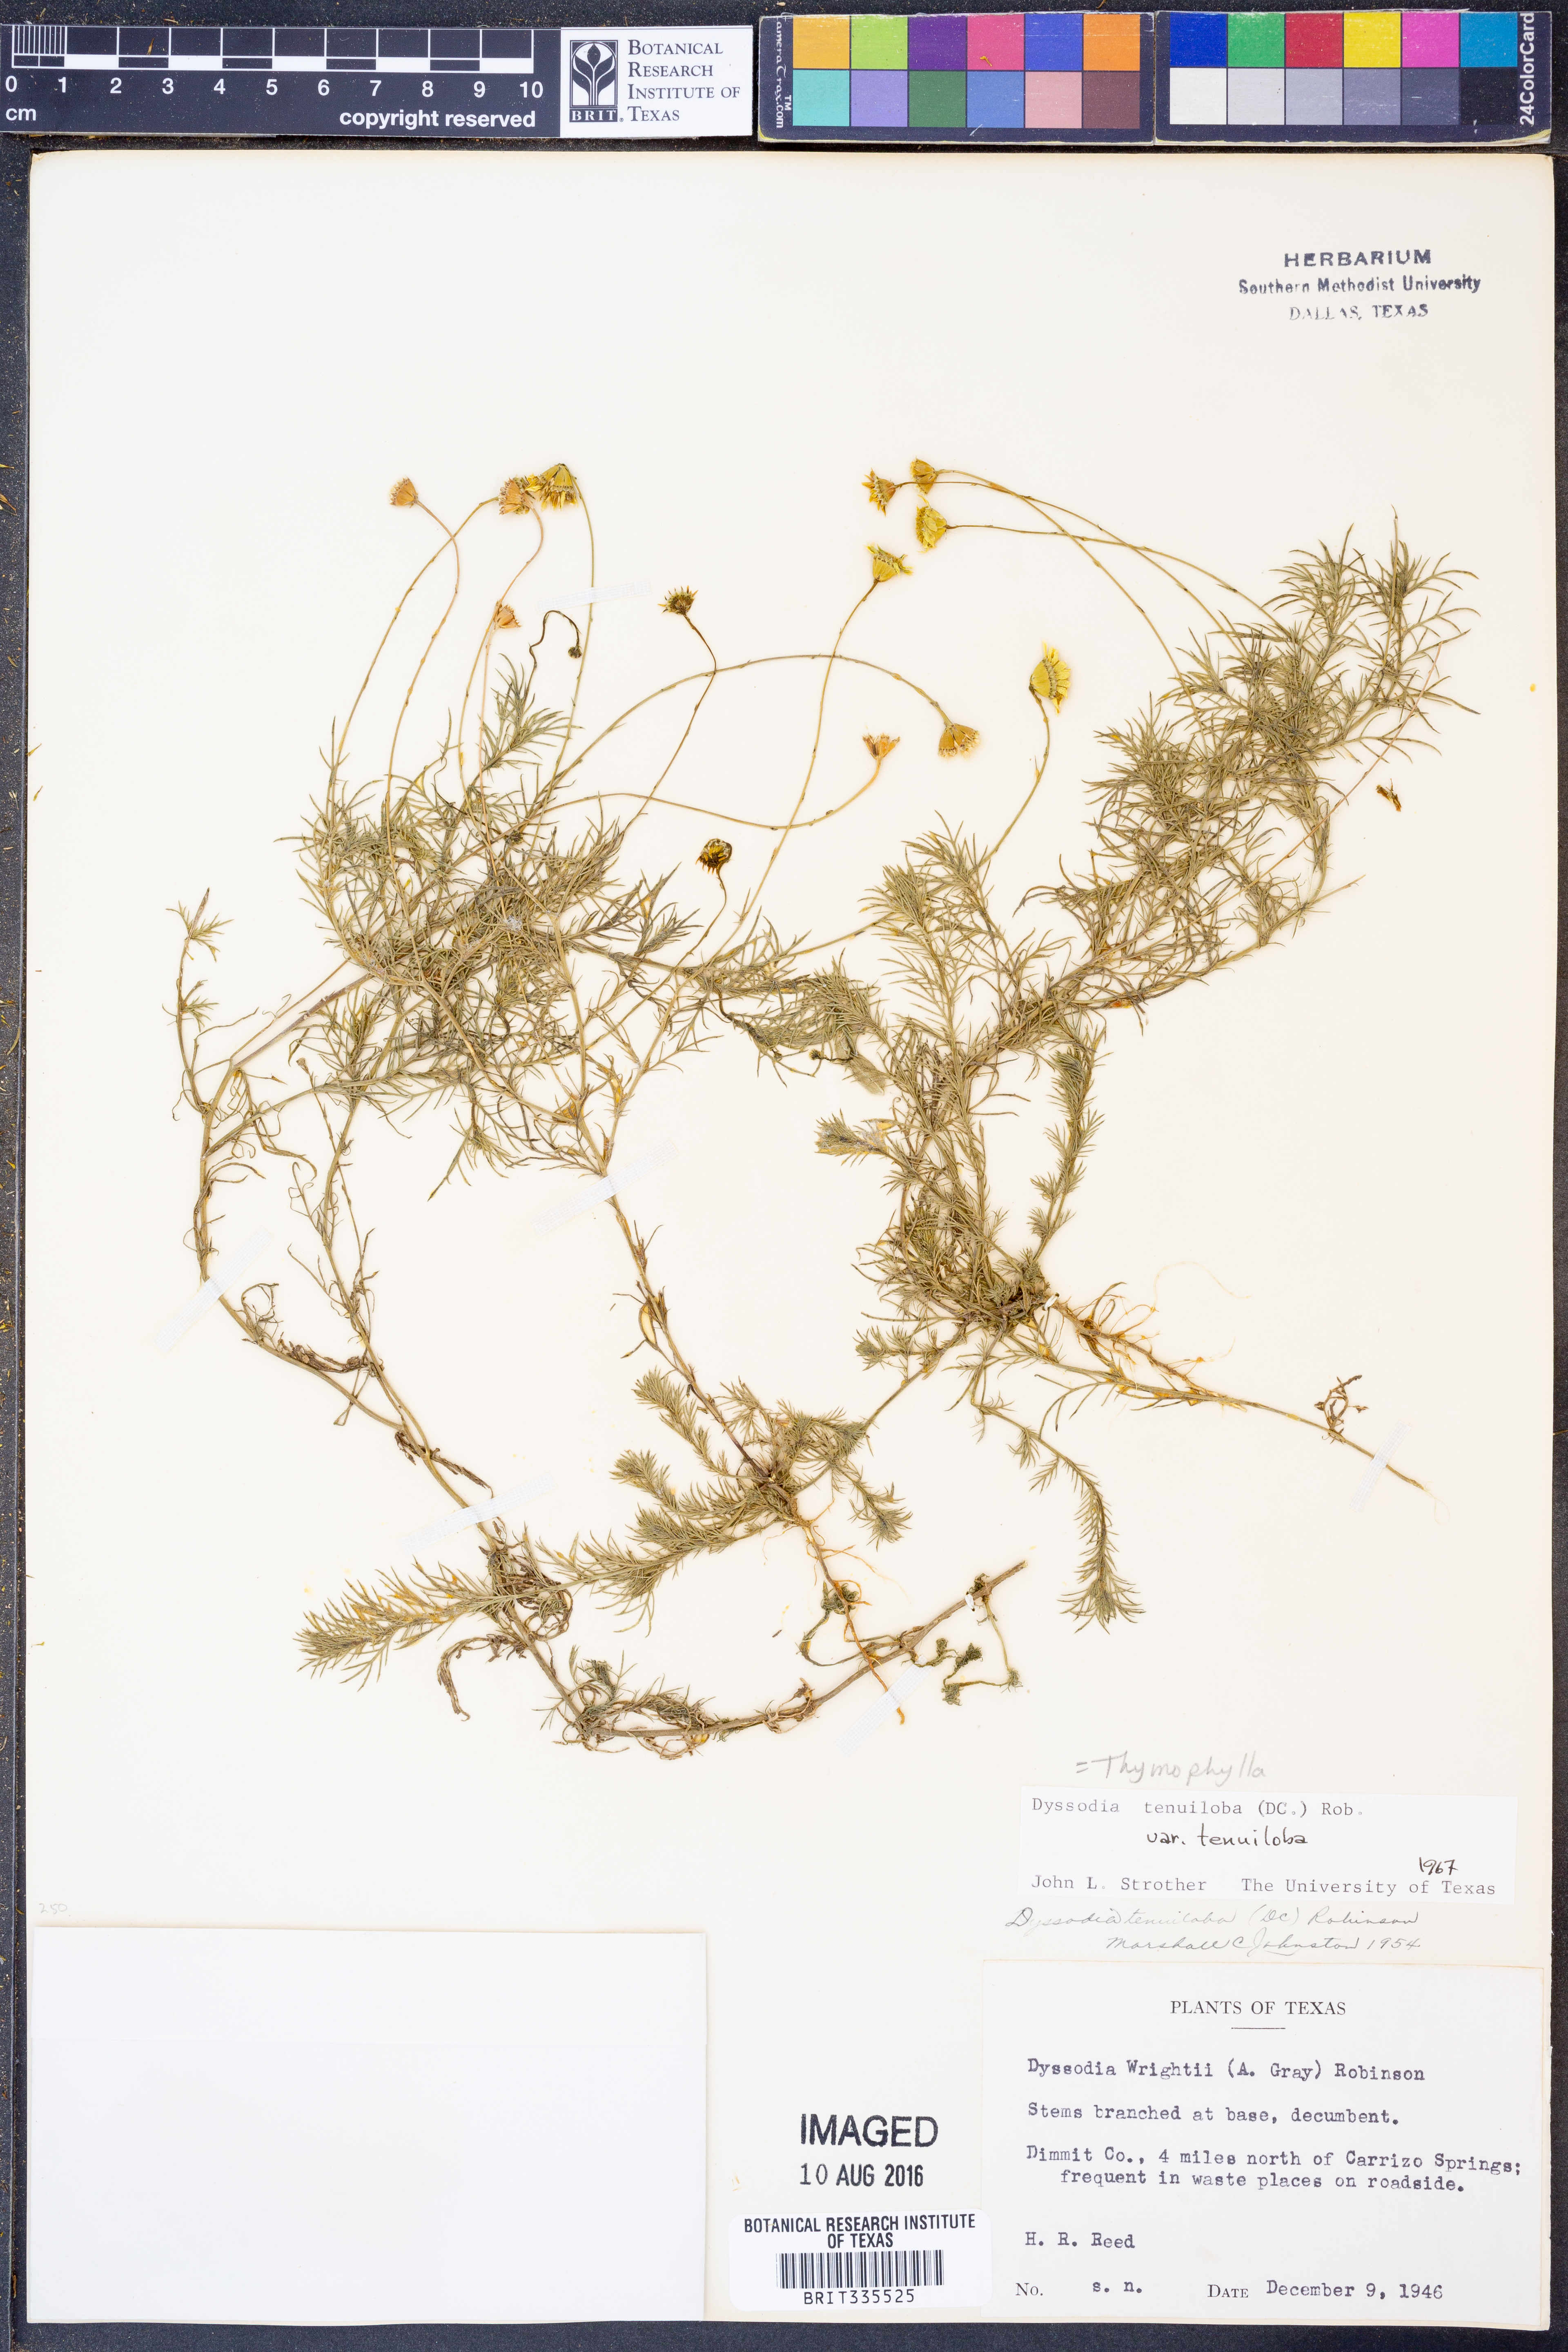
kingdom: Plantae
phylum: Tracheophyta
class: Magnoliopsida
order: Asterales
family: Asteraceae
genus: Thymophylla
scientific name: Thymophylla tenuiloba
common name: Dahlberg's daisy
